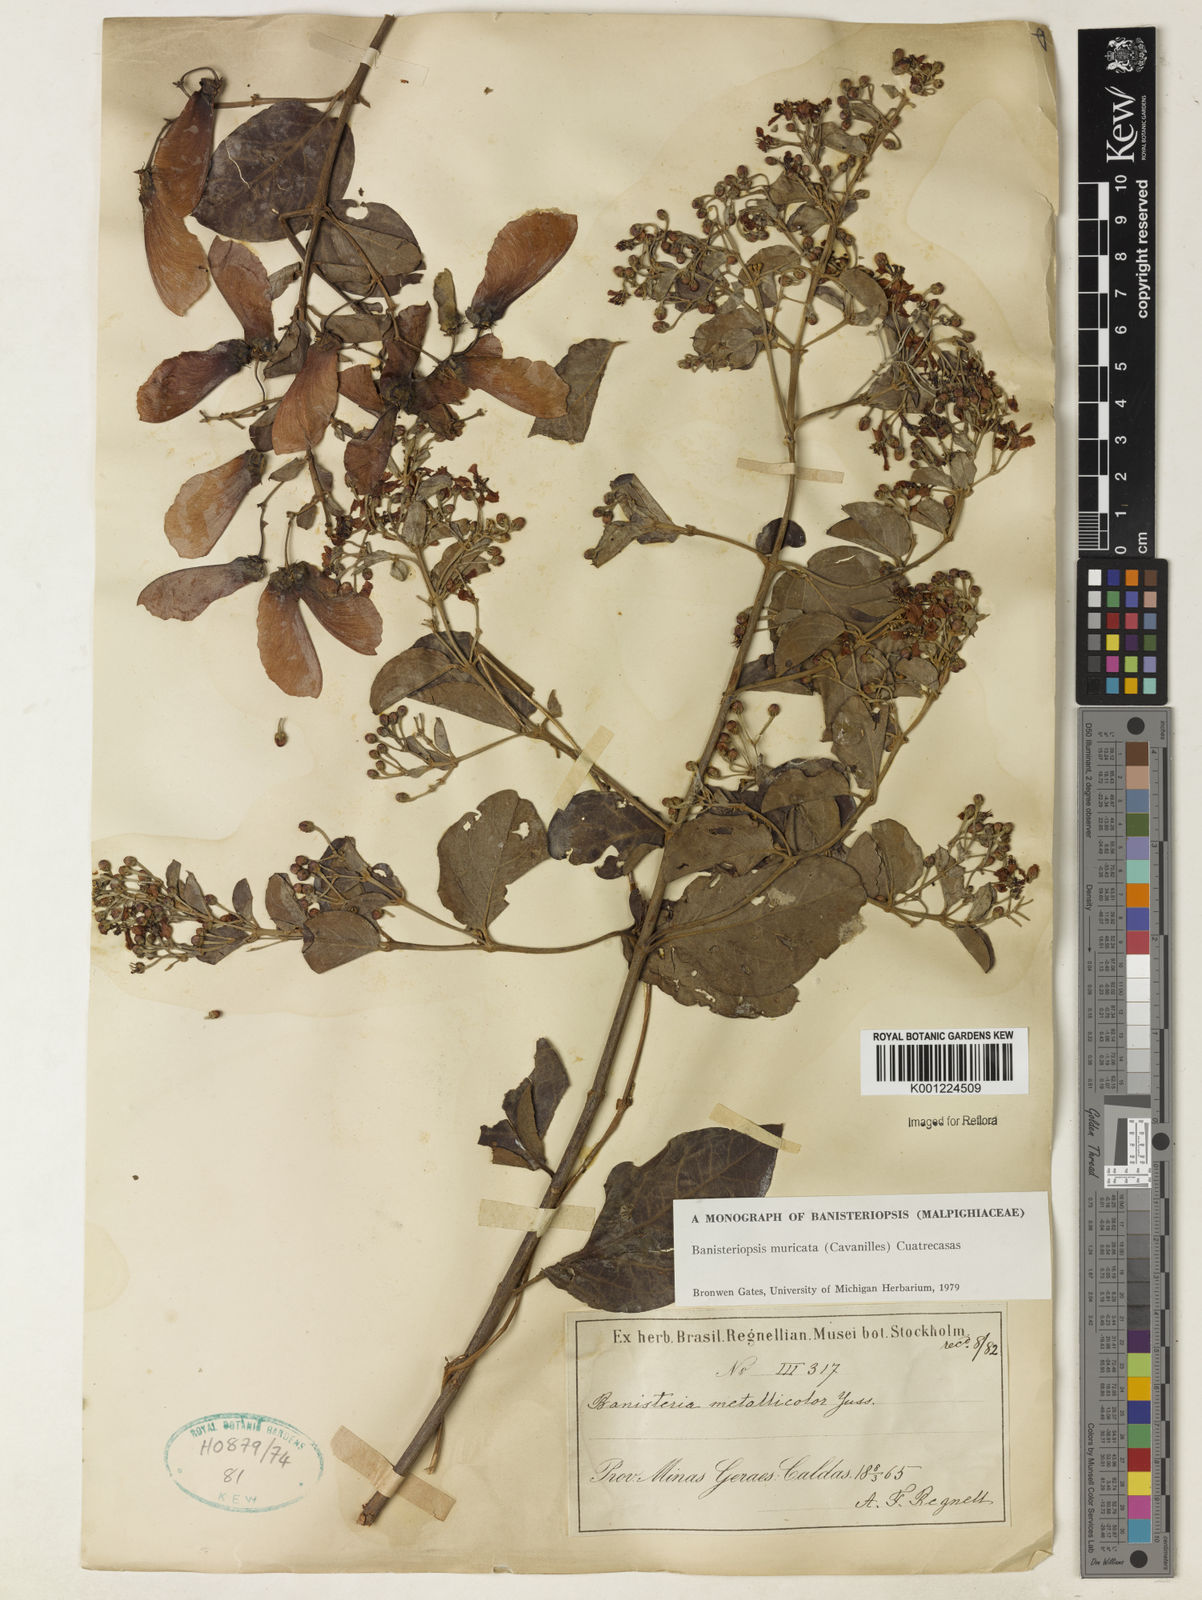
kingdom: Plantae
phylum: Tracheophyta
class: Magnoliopsida
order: Malpighiales
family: Malpighiaceae
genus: Banisteriopsis
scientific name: Banisteriopsis muricata
